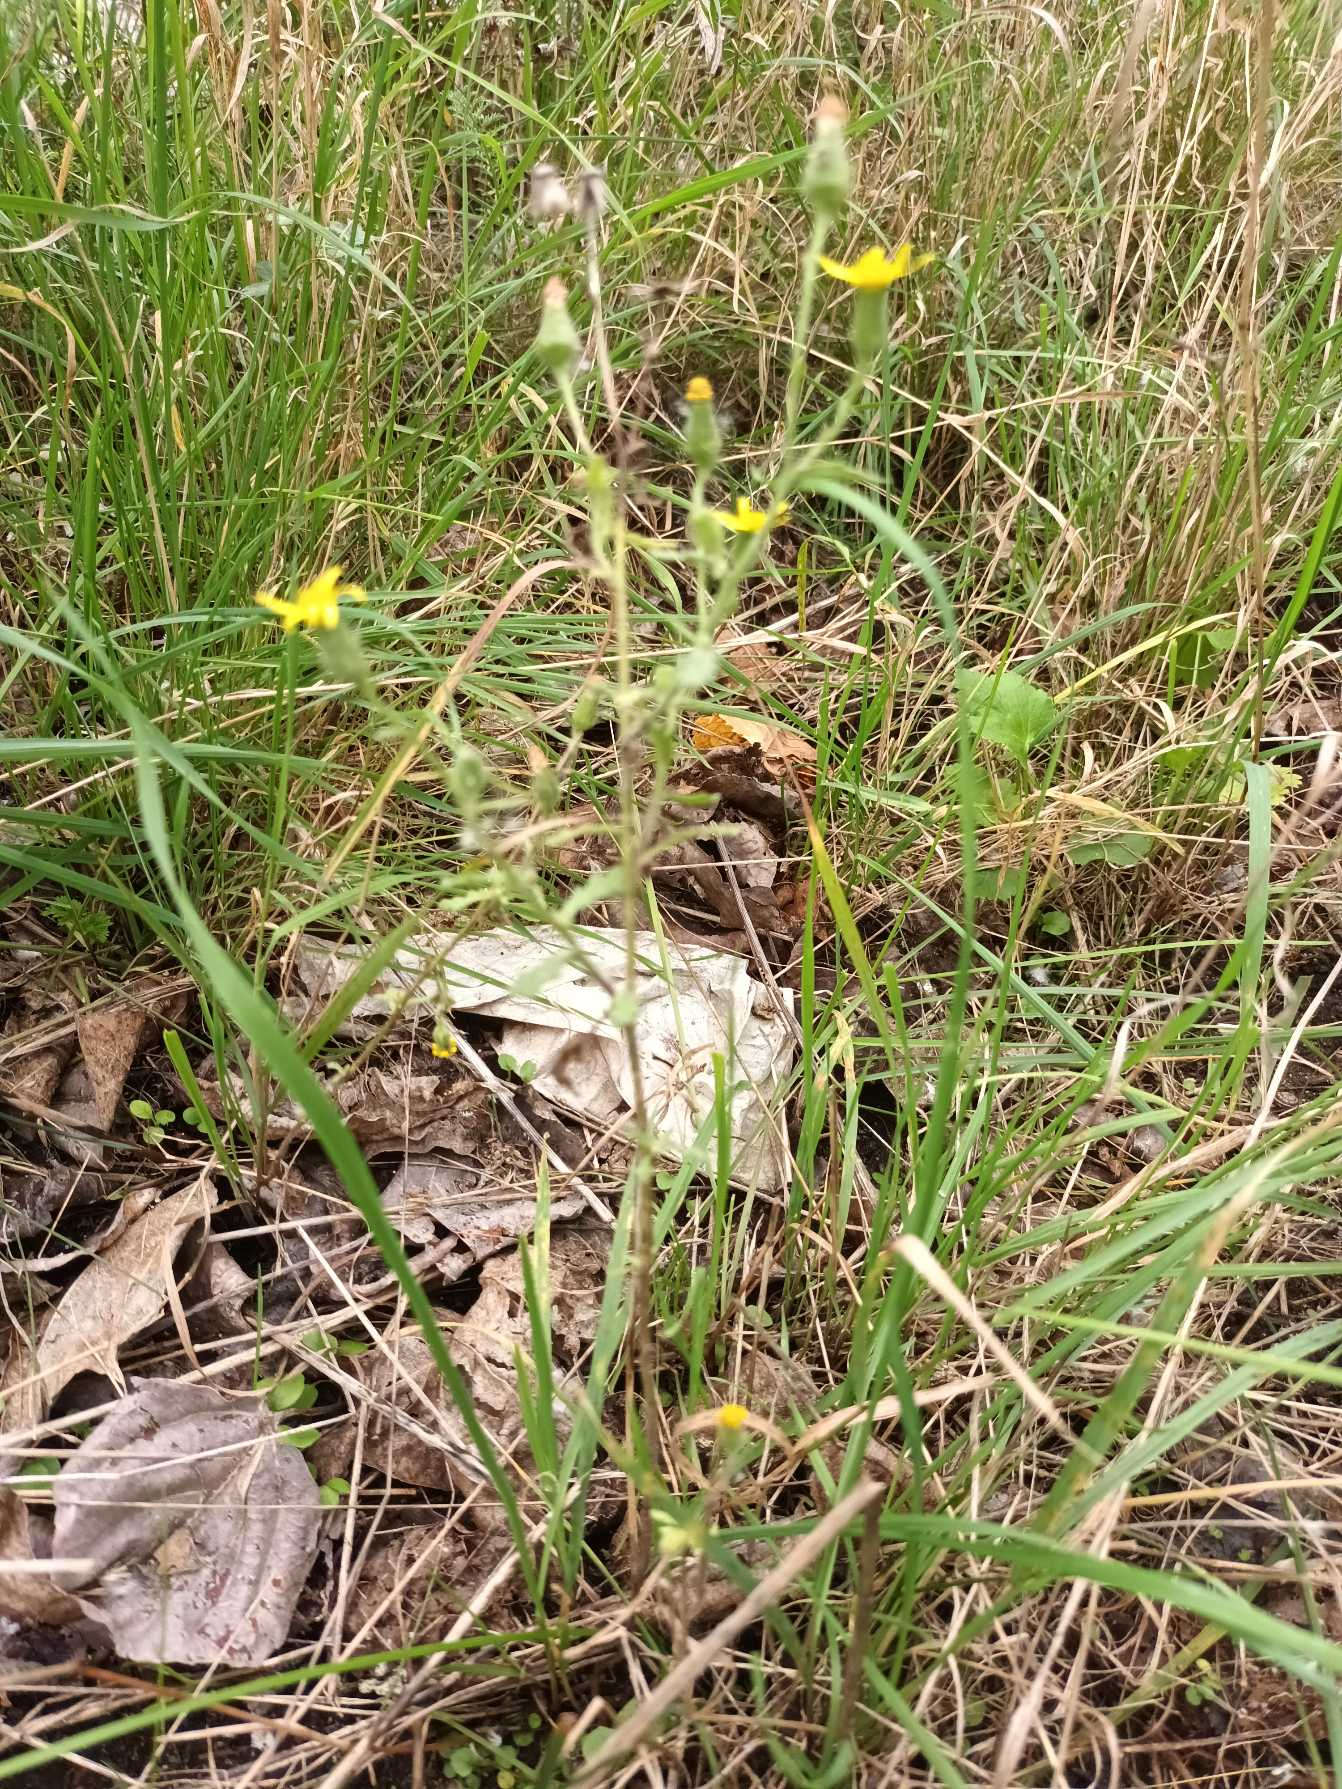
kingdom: Plantae
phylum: Tracheophyta
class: Magnoliopsida
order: Asterales
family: Asteraceae
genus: Senecio
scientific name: Senecio viscosus
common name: Klæbrig brandbæger
